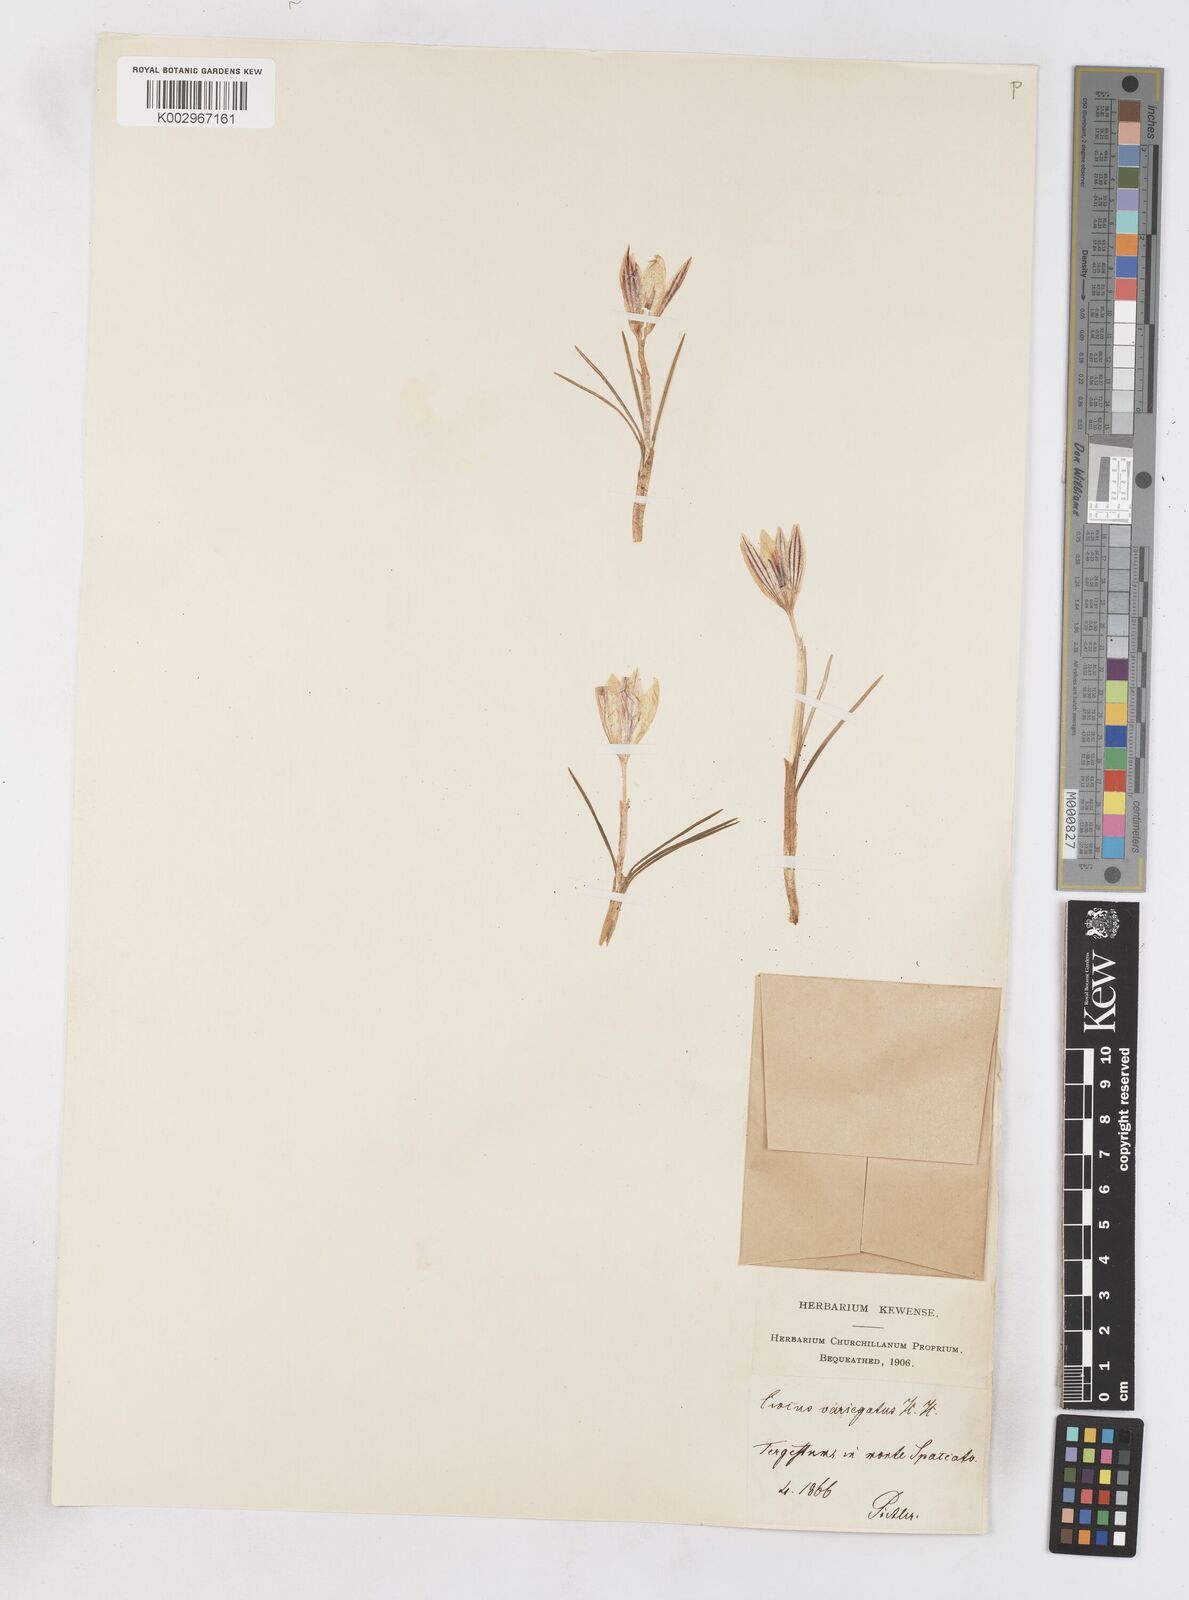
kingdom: Plantae
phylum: Tracheophyta
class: Liliopsida
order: Asparagales
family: Iridaceae
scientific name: Iridaceae
